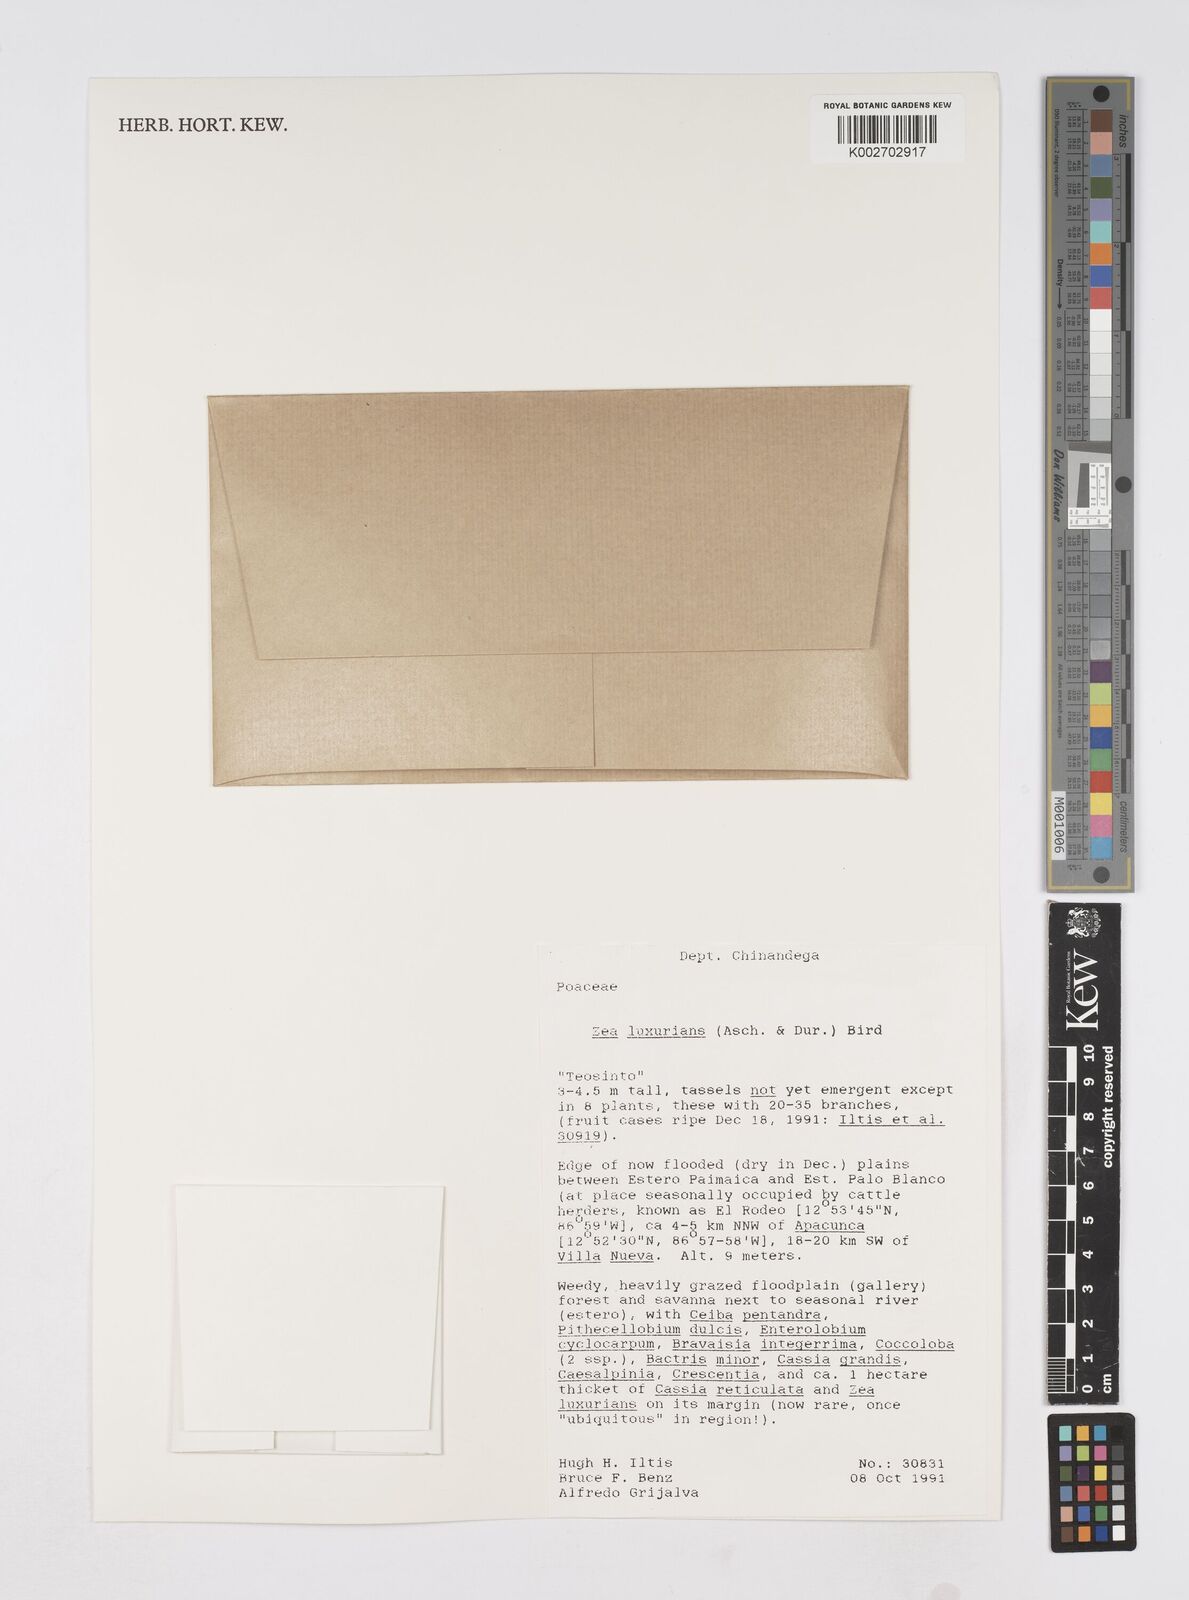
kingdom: Plantae
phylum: Tracheophyta
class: Liliopsida
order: Poales
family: Poaceae
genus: Zea
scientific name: Zea luxurians
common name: Teosinte
